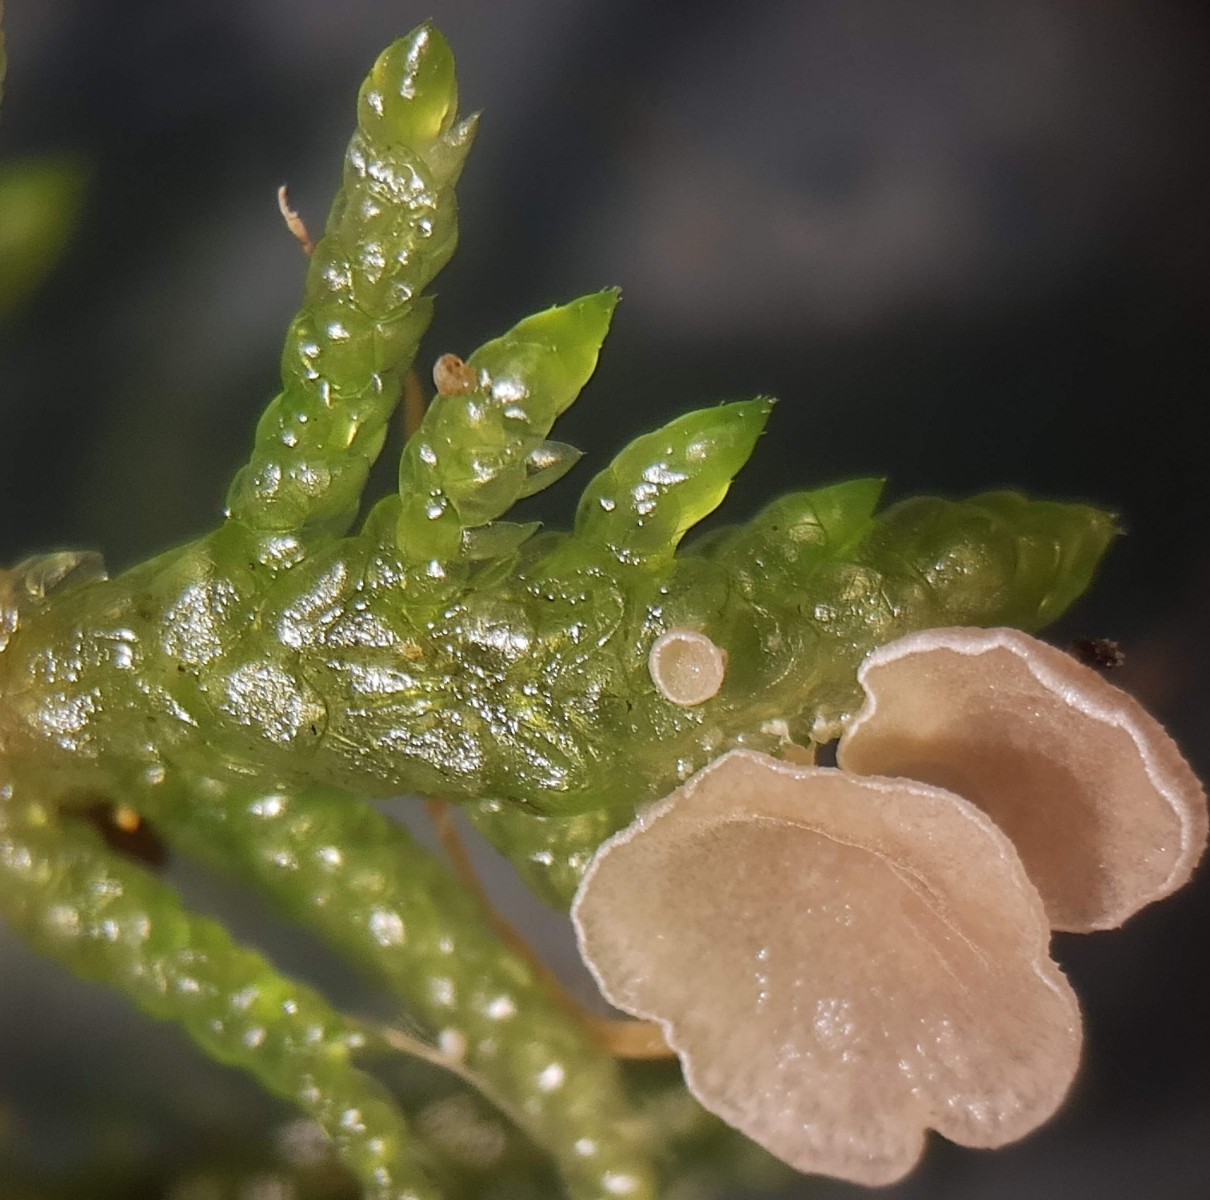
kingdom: Fungi
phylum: Basidiomycota
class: Agaricomycetes
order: Agaricales
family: Tricholomataceae
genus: Rimbachia
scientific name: Rimbachia arachnoidea
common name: Almindelig mosskål
